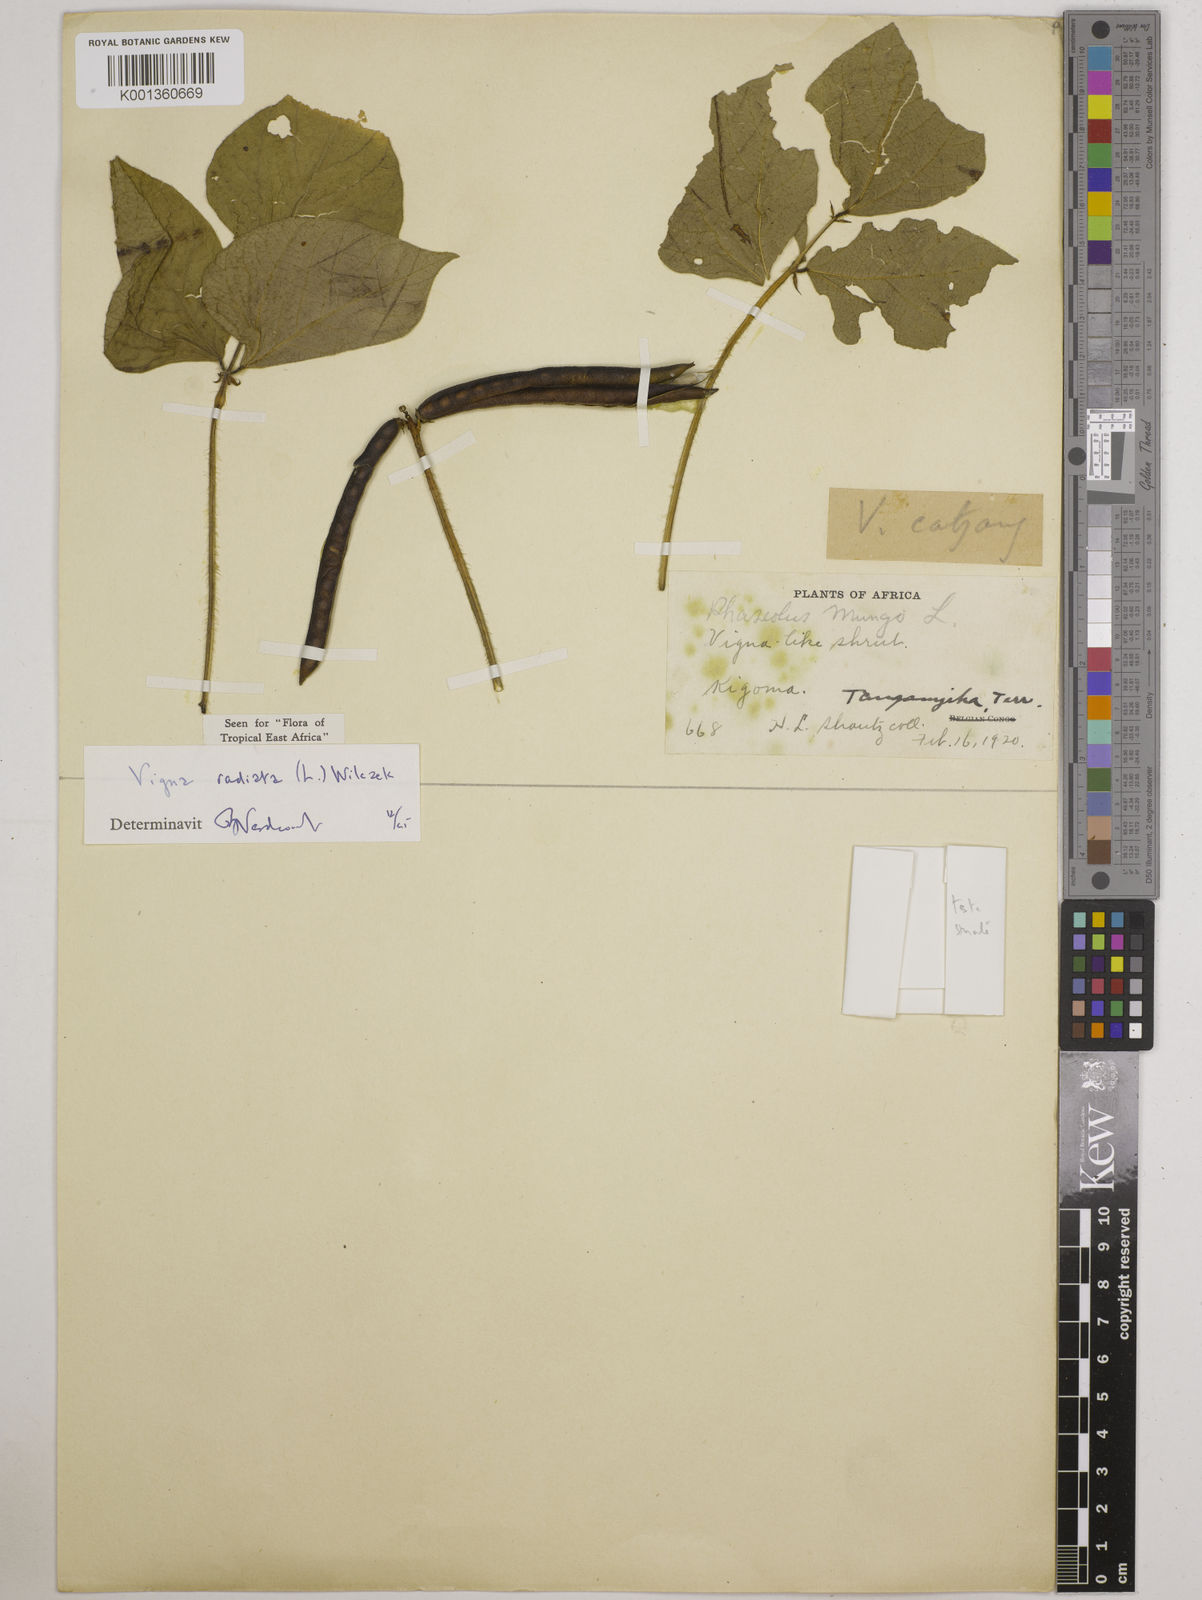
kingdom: Plantae
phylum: Tracheophyta
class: Magnoliopsida
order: Fabales
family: Fabaceae
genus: Vigna
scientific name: Vigna radiata
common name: Mung-bean
